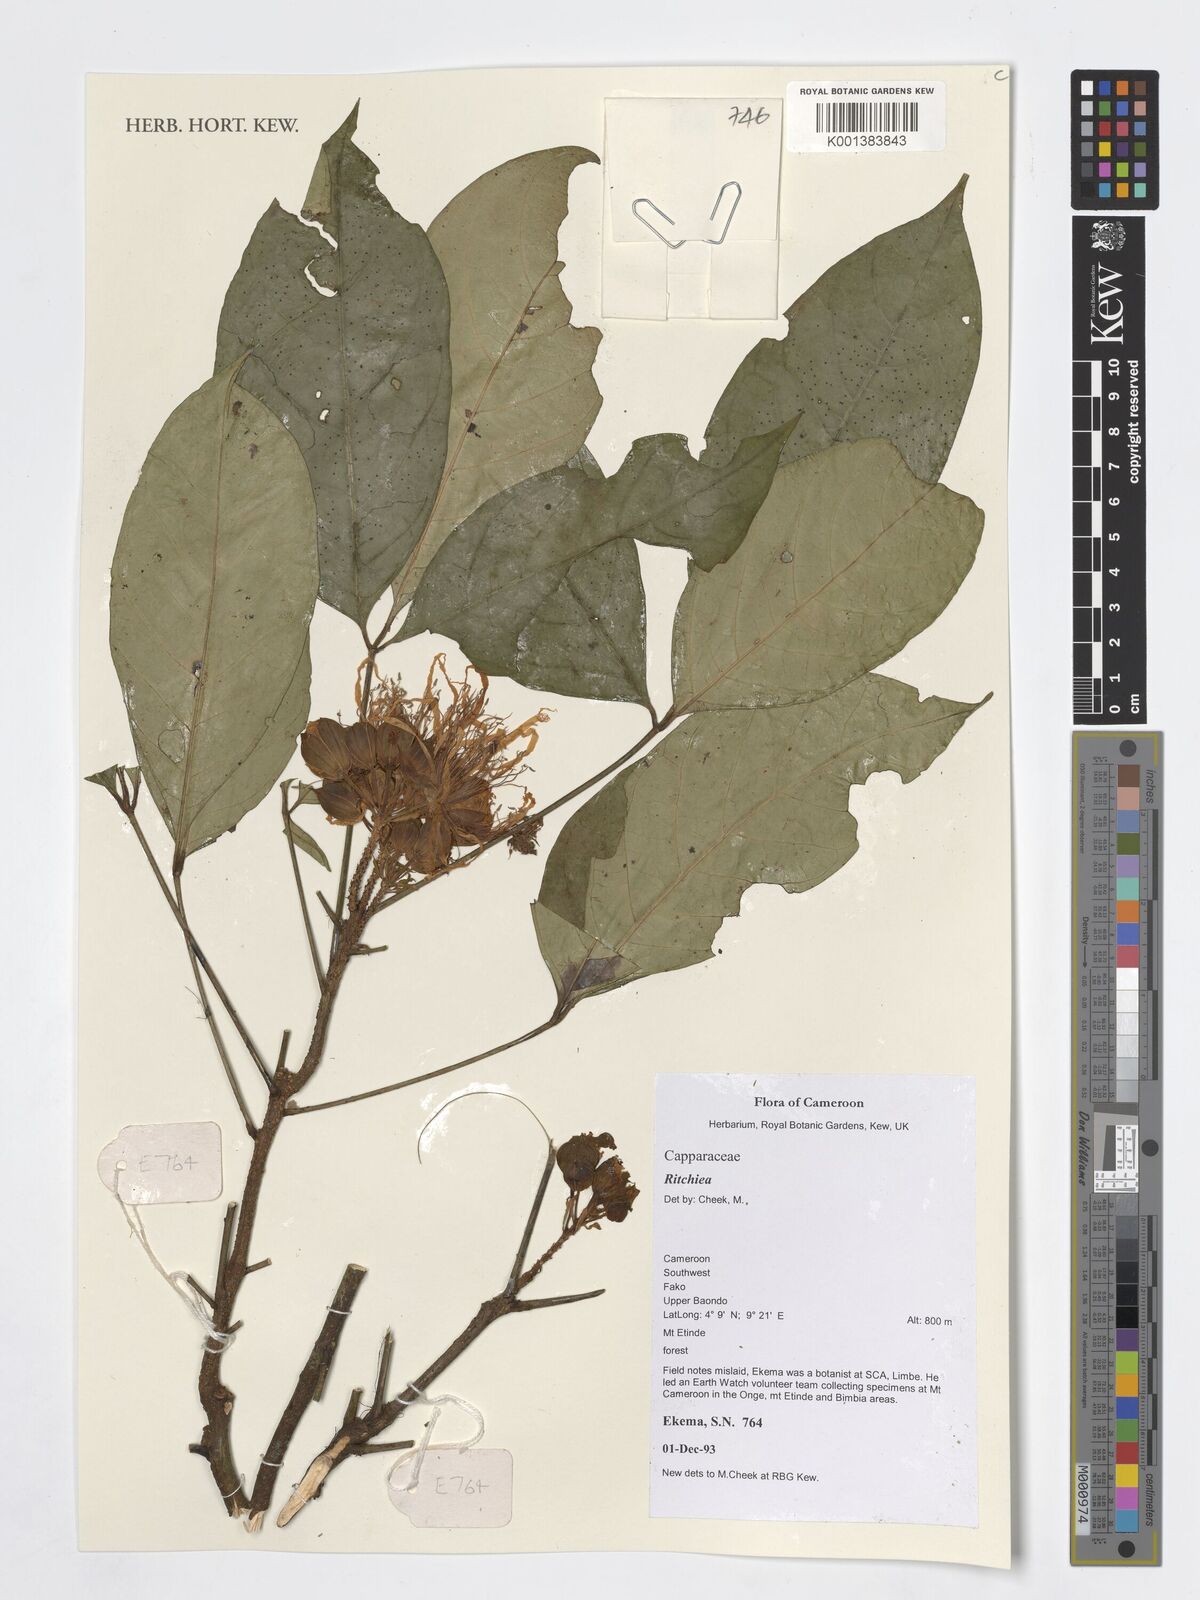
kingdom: Plantae
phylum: Tracheophyta
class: Magnoliopsida
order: Brassicales
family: Capparaceae
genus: Ritchiea
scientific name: Ritchiea
